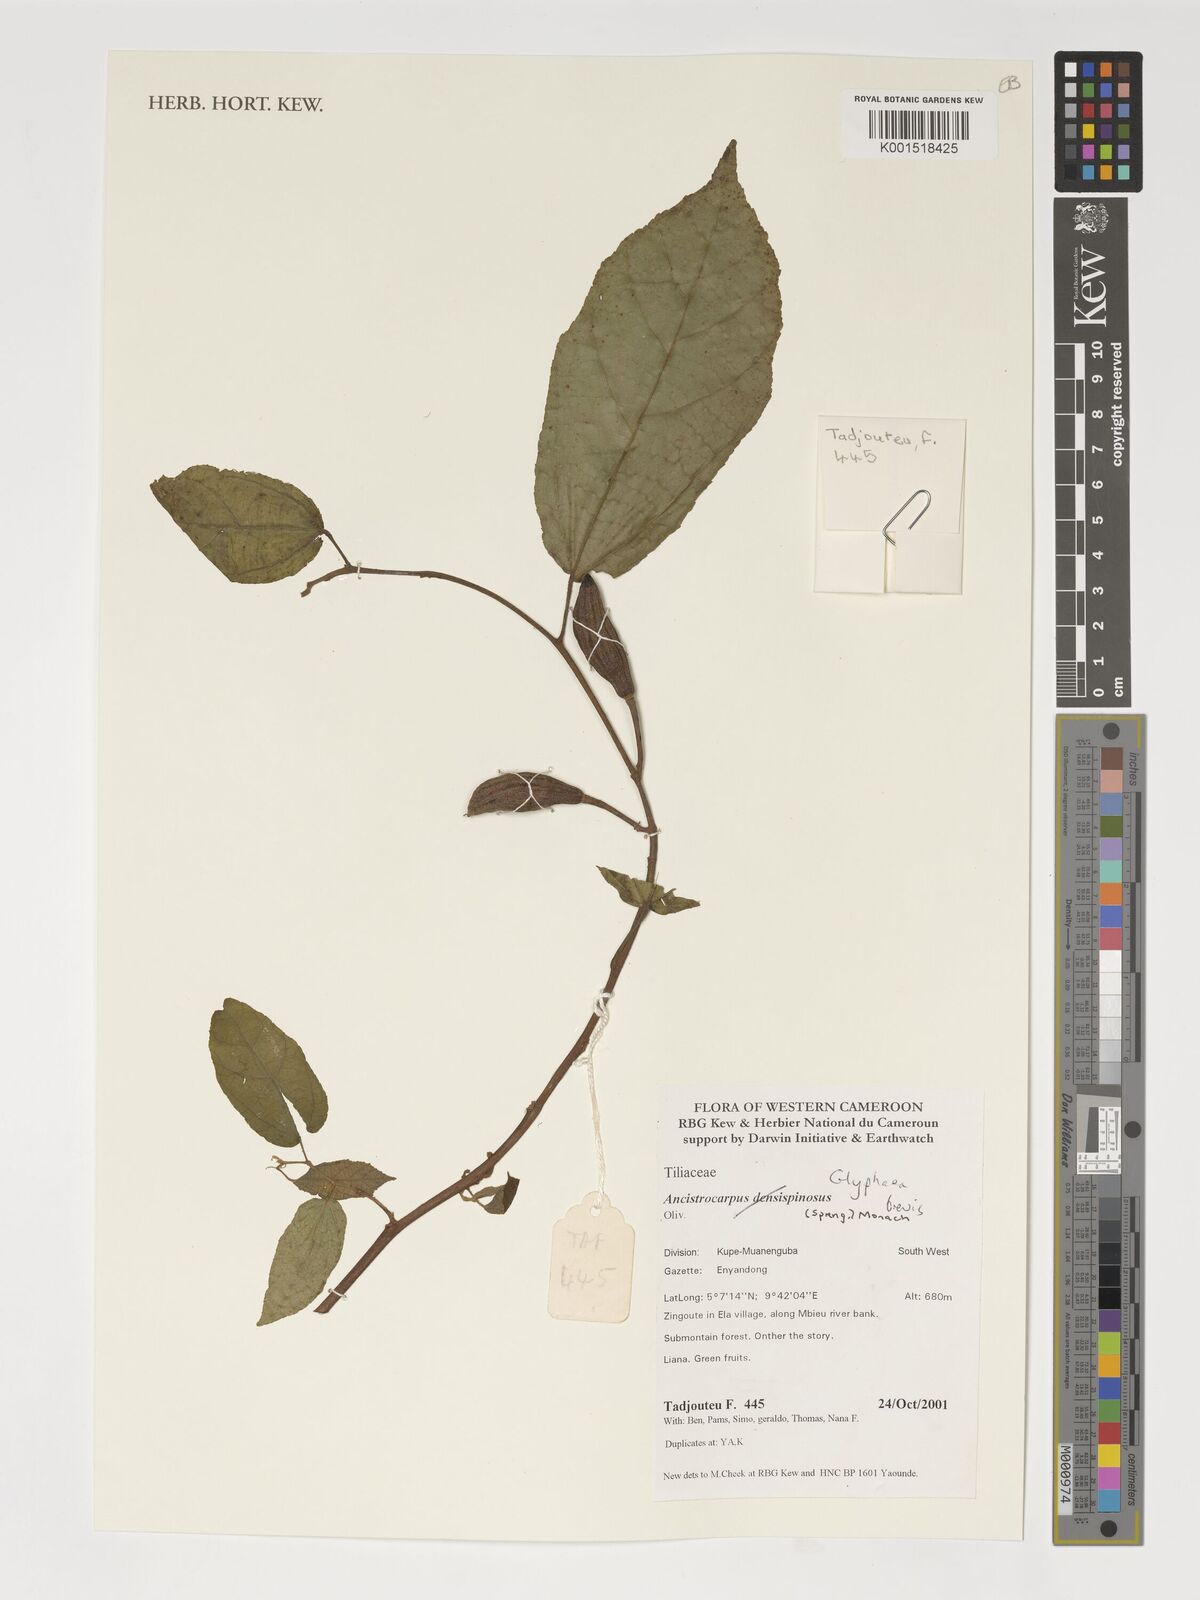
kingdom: Plantae
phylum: Tracheophyta
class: Magnoliopsida
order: Malvales
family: Malvaceae
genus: Glyphaea
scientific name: Glyphaea brevis
